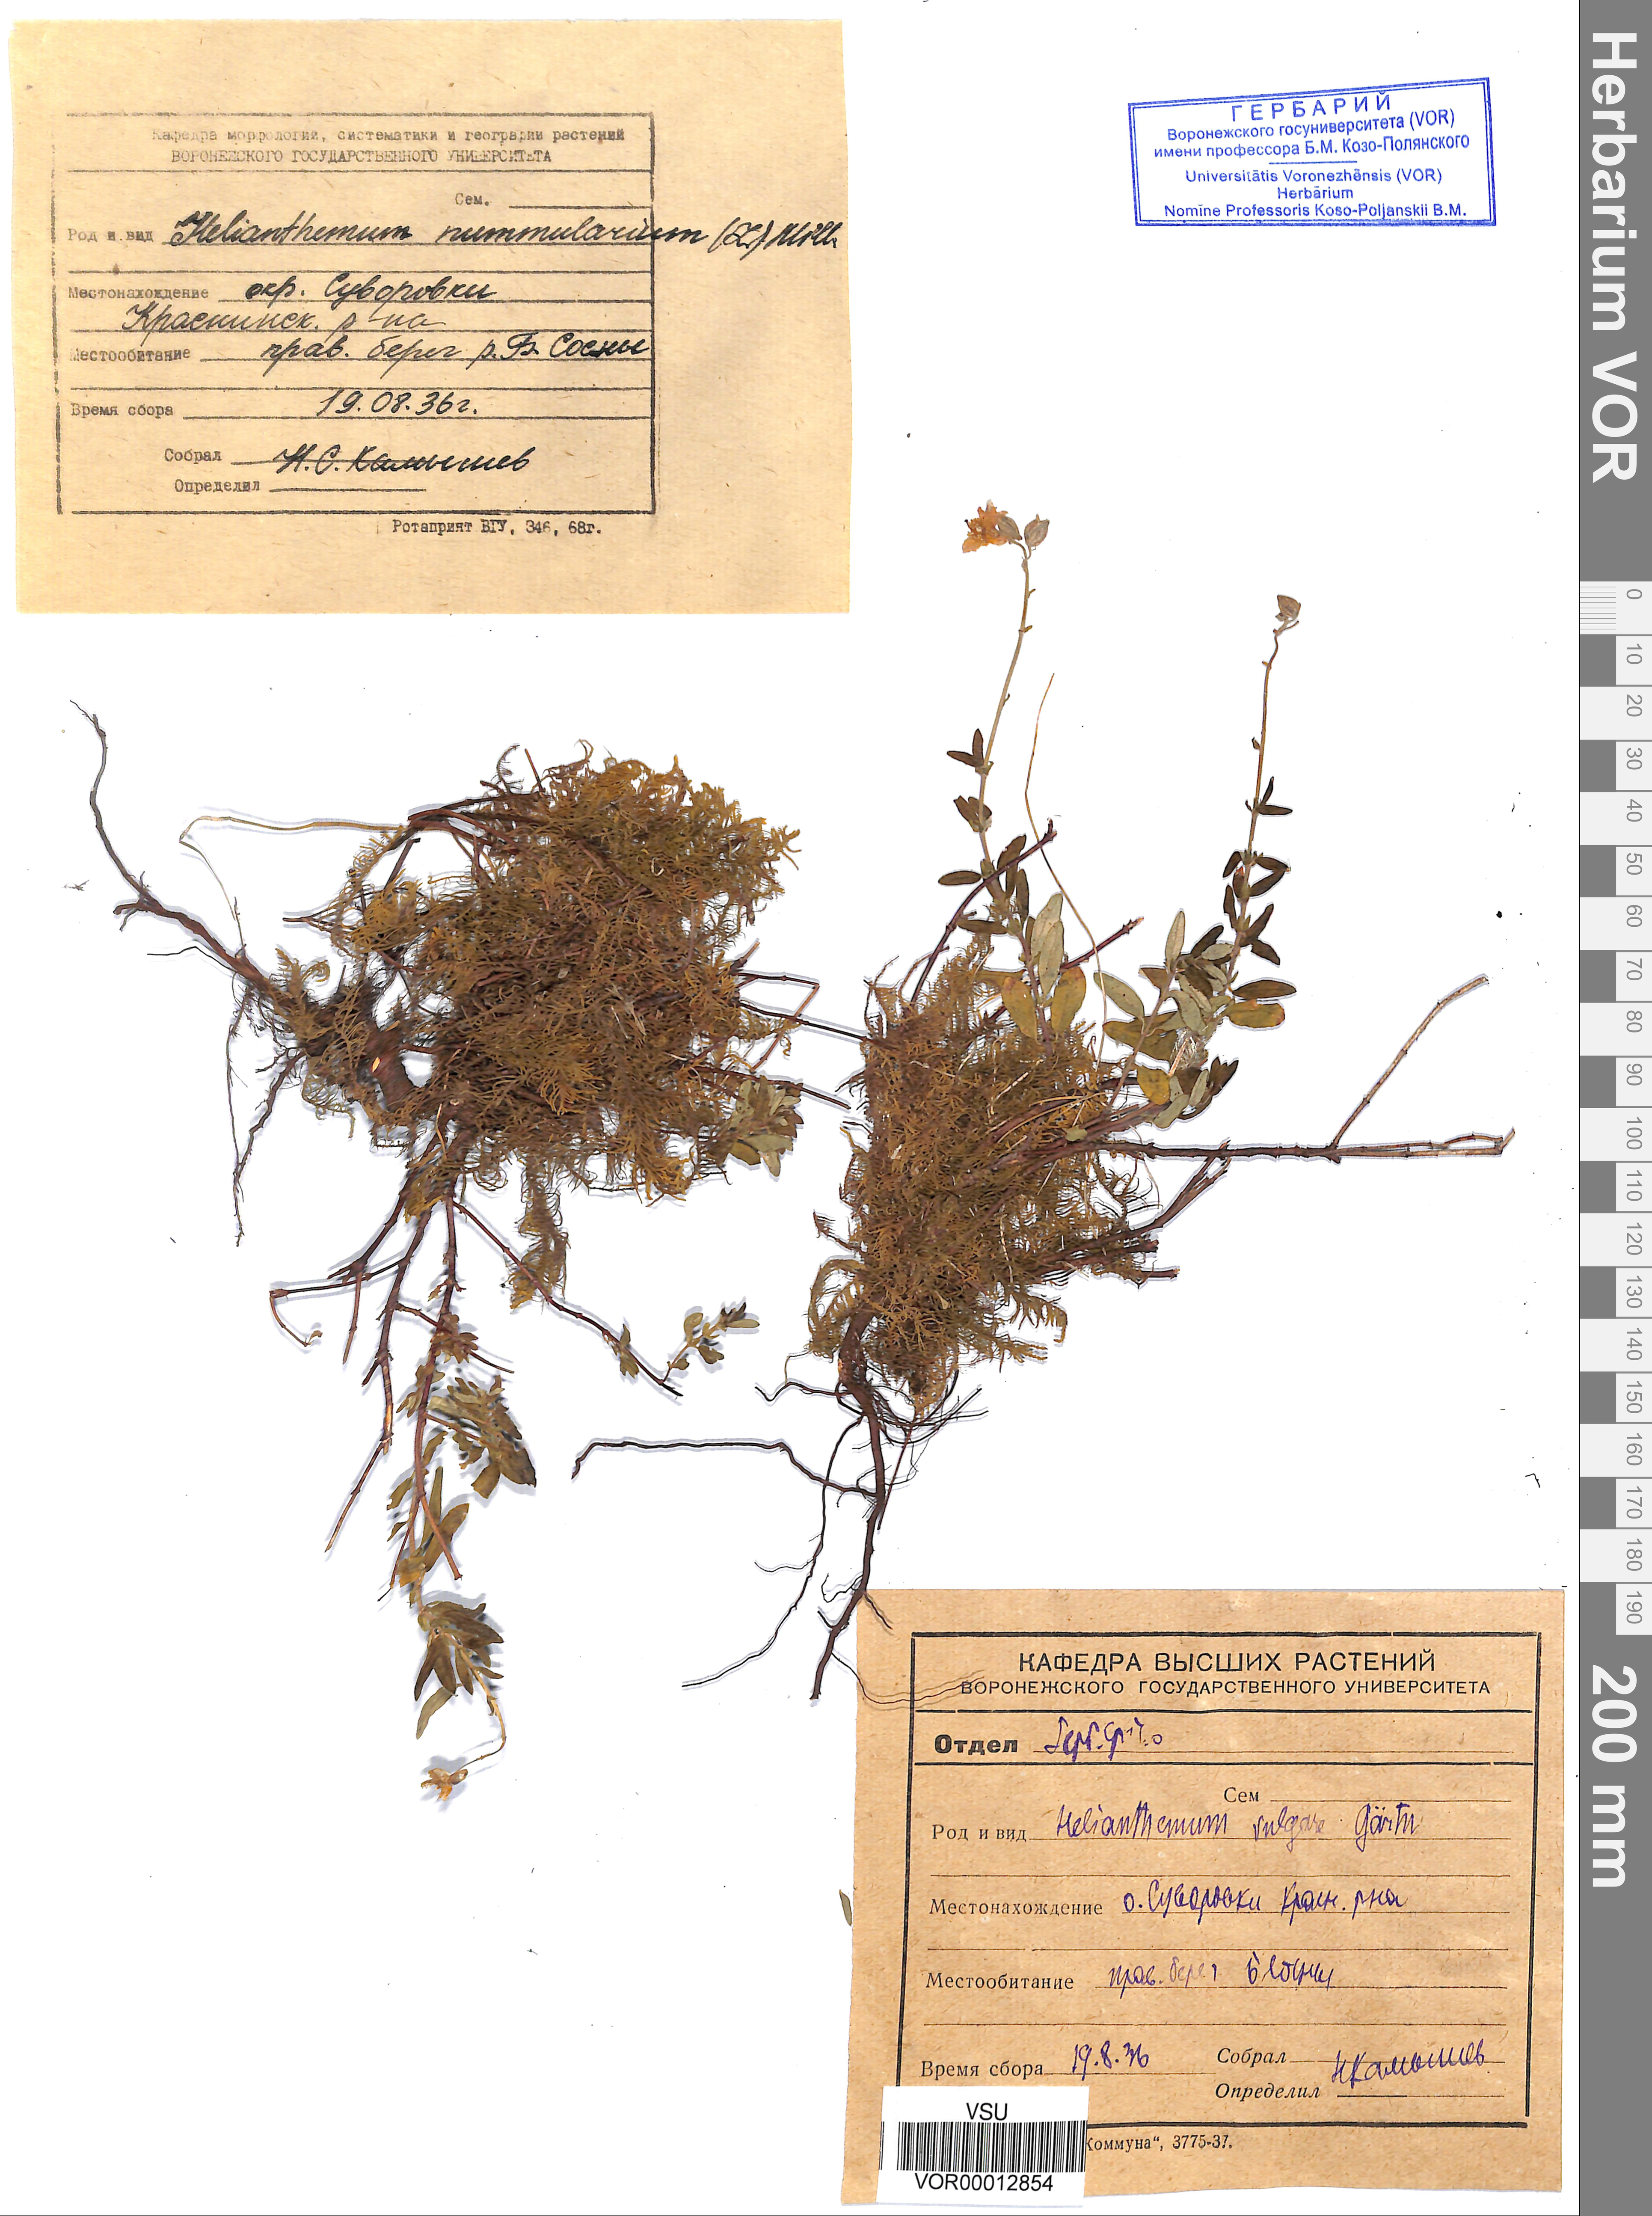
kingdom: Plantae
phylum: Tracheophyta
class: Magnoliopsida
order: Malvales
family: Cistaceae
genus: Helianthemum
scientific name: Helianthemum nummularium
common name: Common rock-rose
